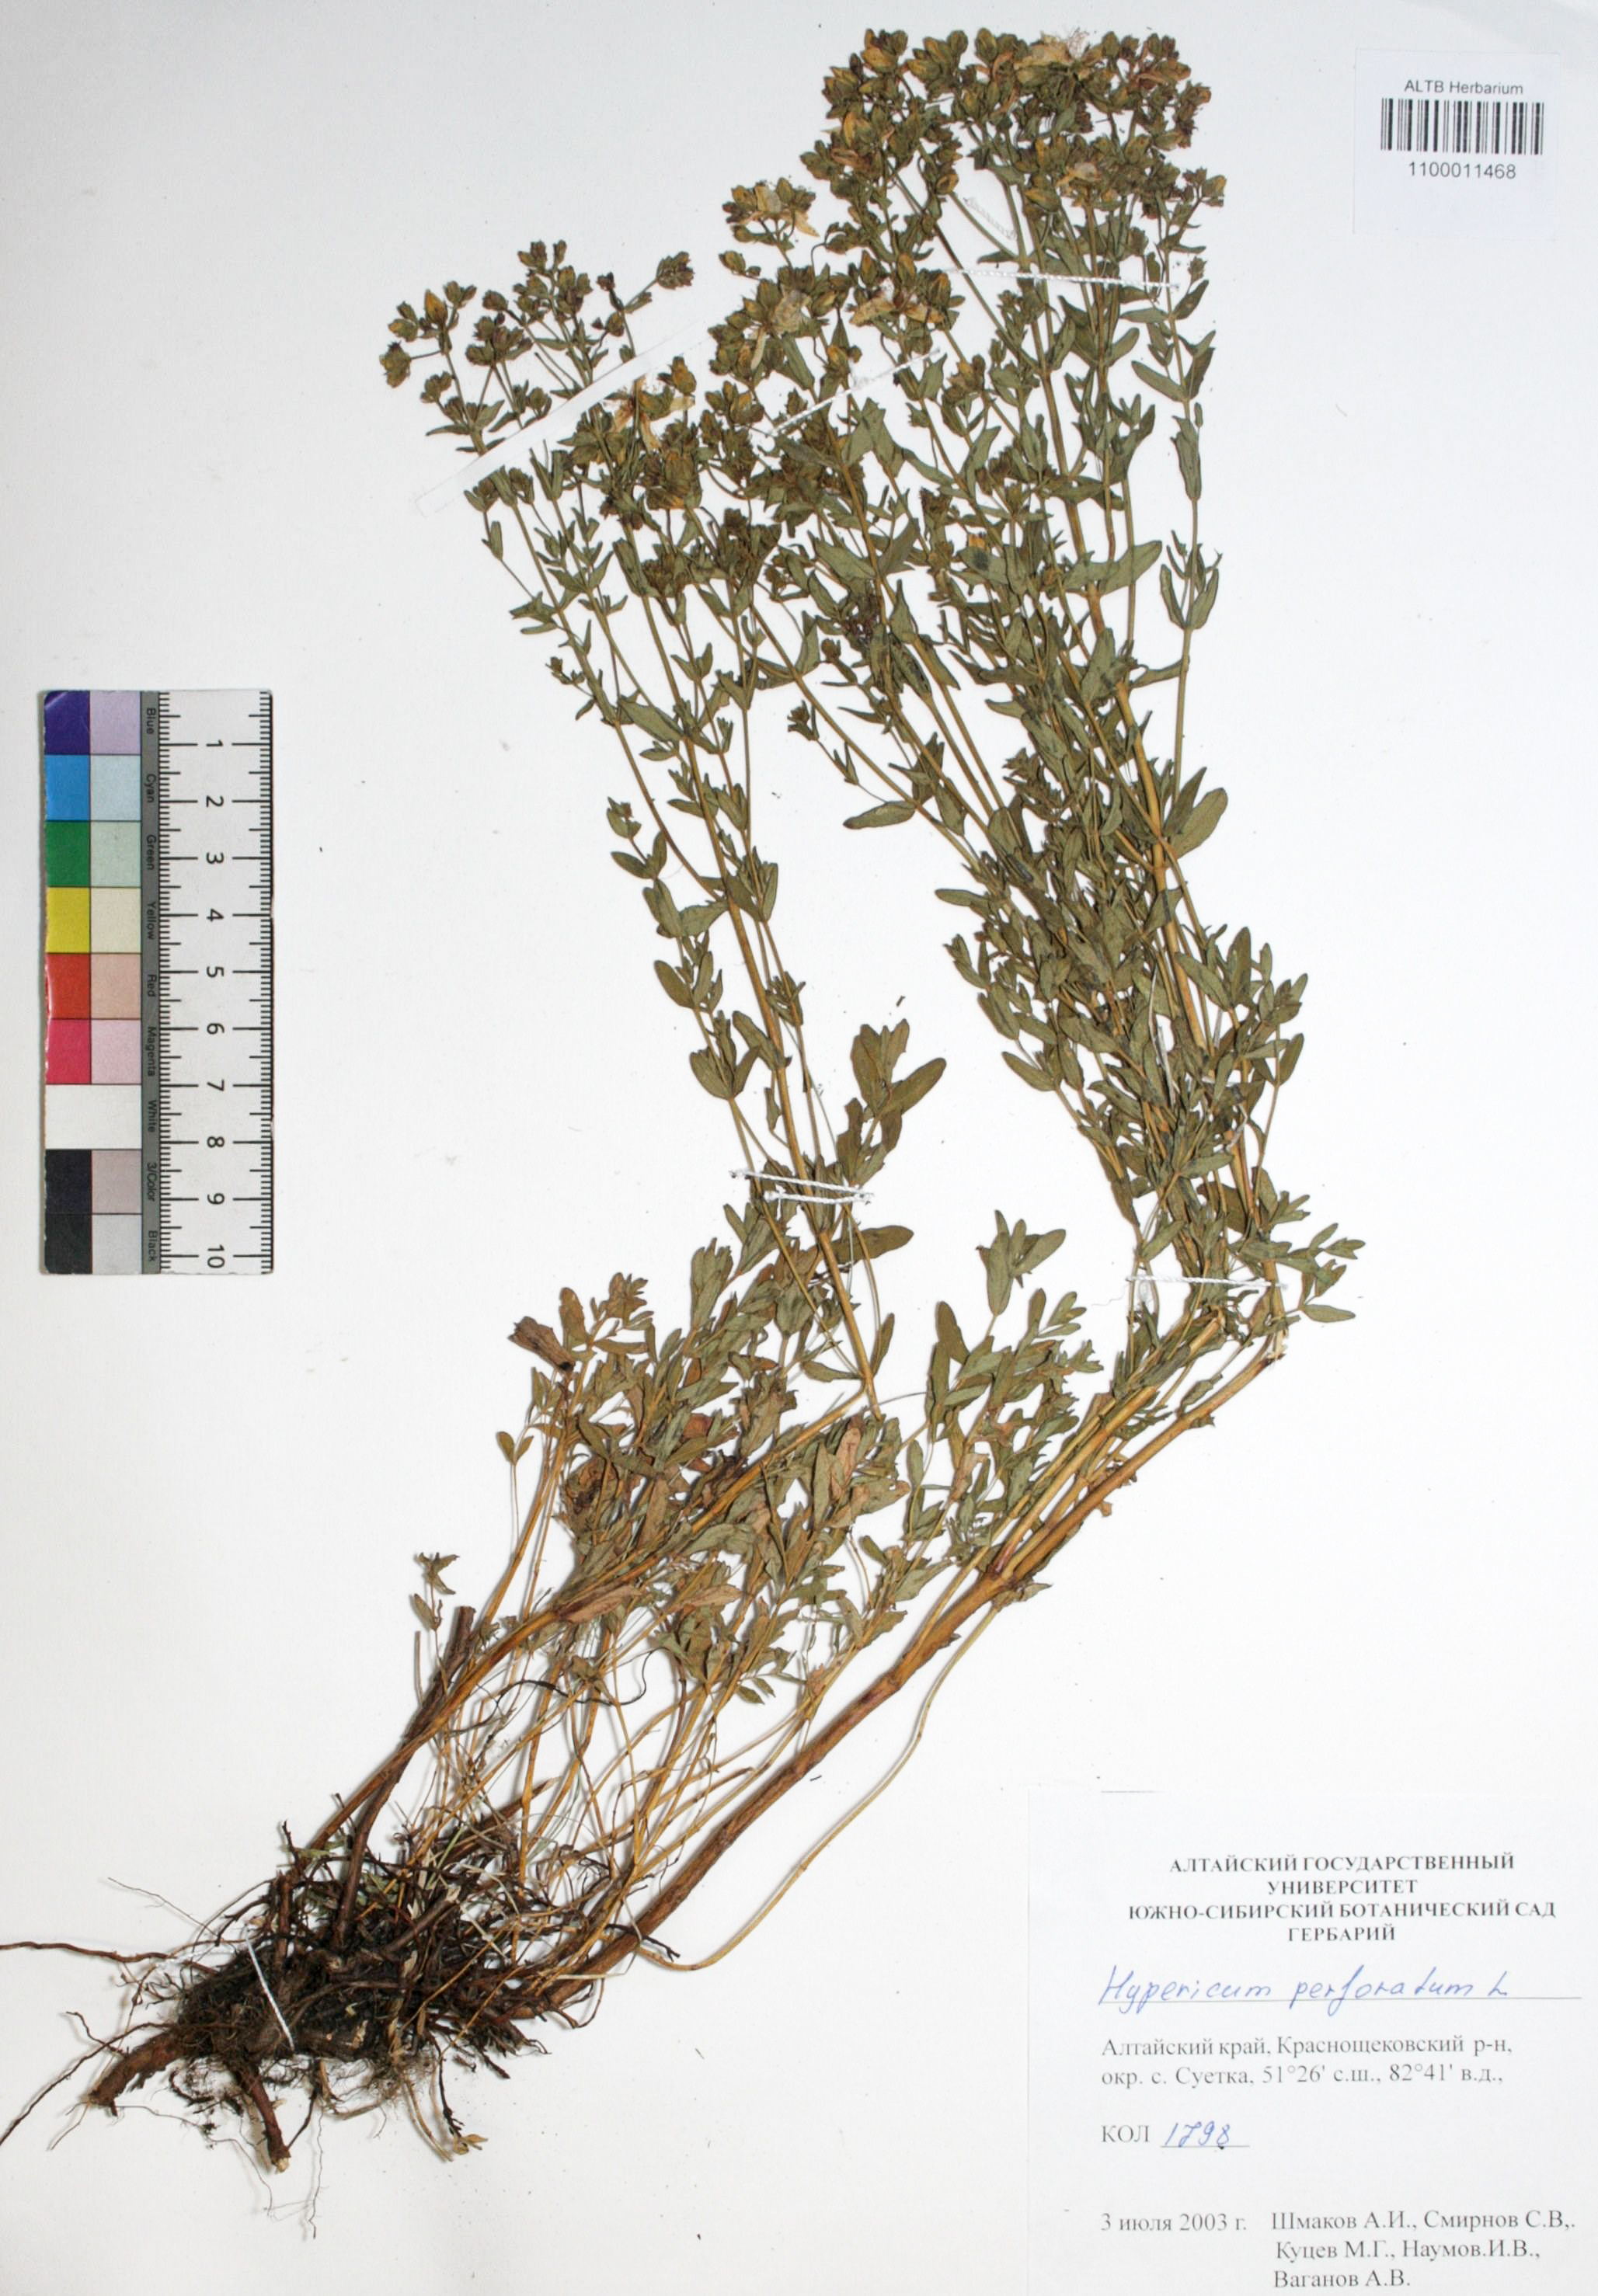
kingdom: Plantae
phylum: Tracheophyta
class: Magnoliopsida
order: Malpighiales
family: Hypericaceae
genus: Hypericum
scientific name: Hypericum perforatum
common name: Common st. johnswort
